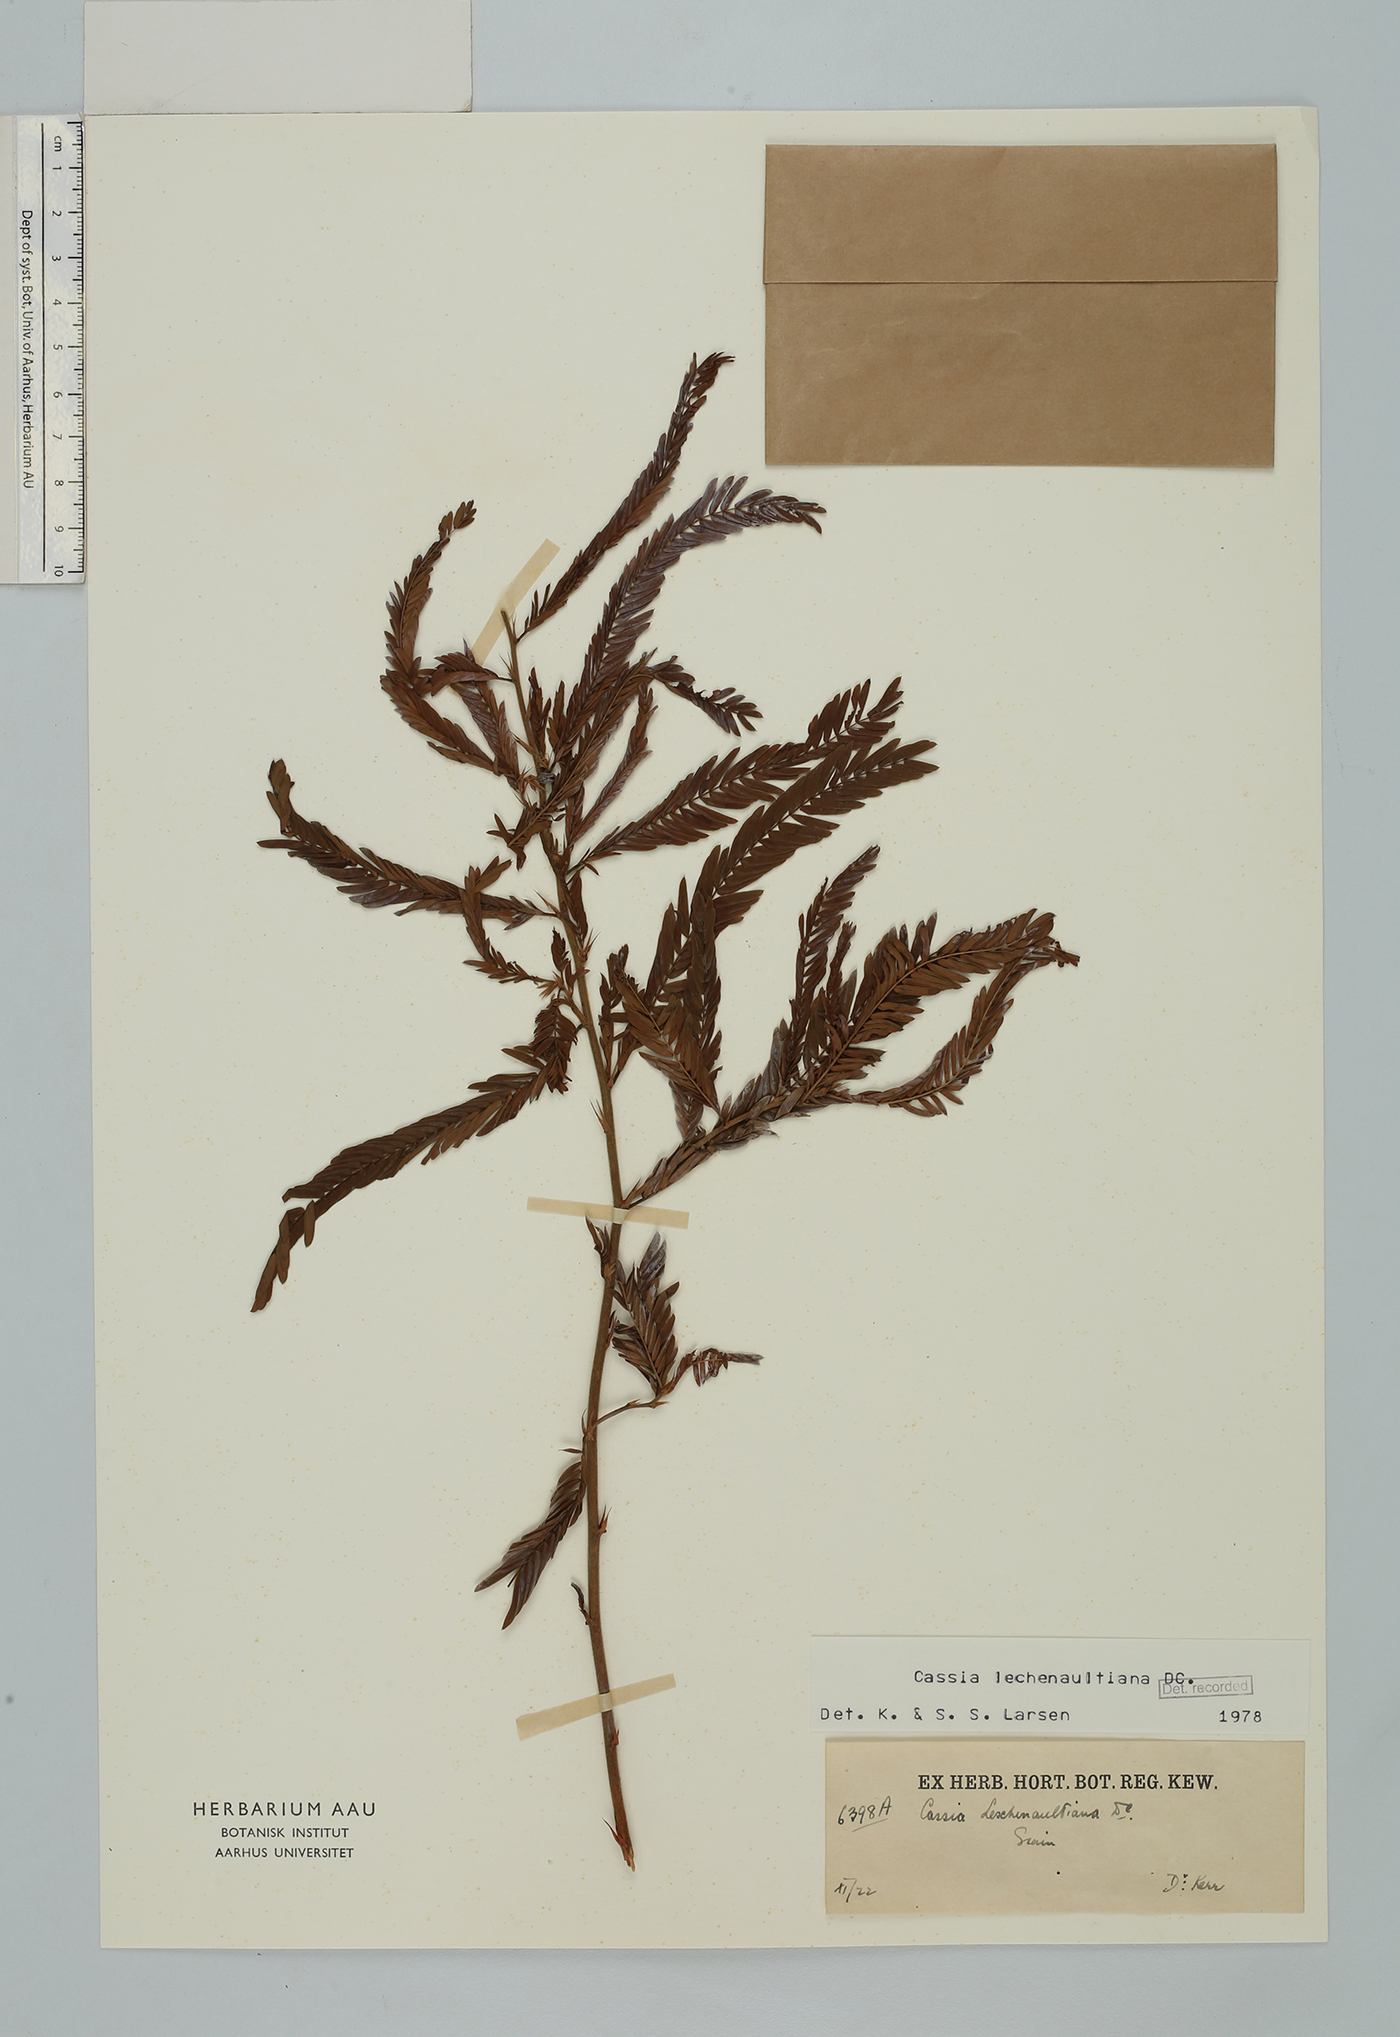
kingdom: Plantae
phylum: Tracheophyta
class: Magnoliopsida
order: Fabales
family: Fabaceae
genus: Chamaecrista
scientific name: Chamaecrista nictitans
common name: Sensitive cassia
